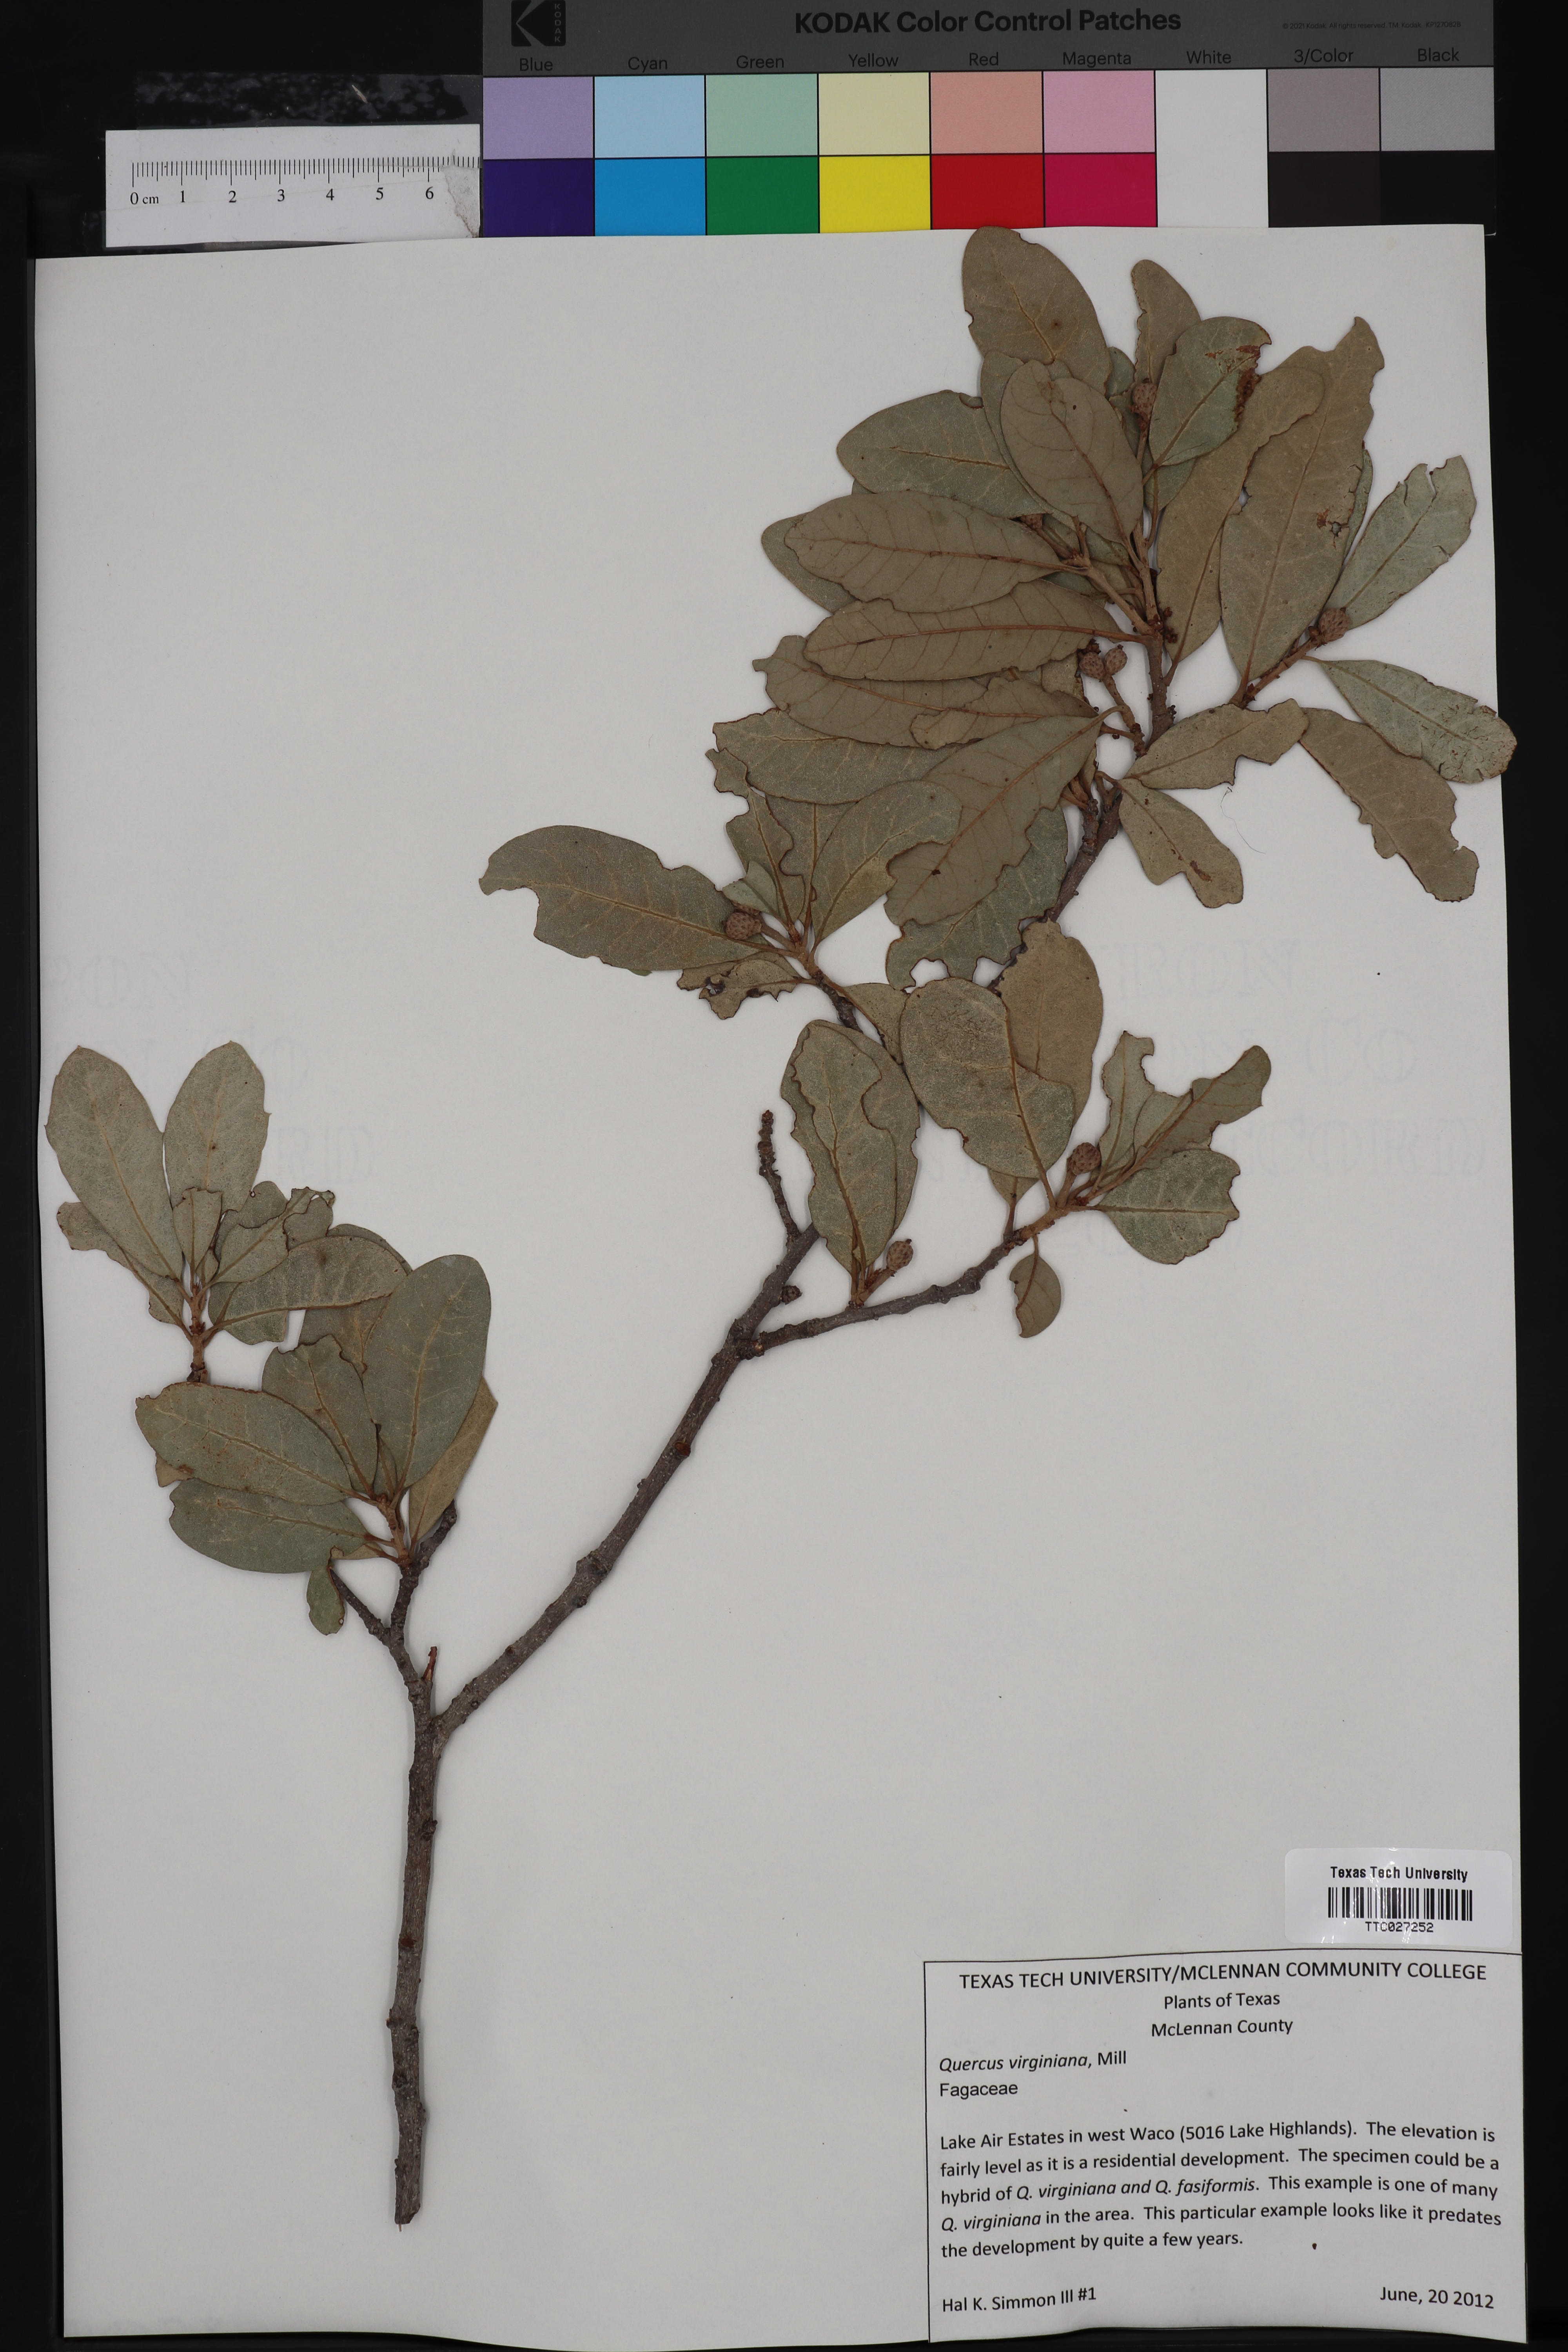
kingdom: Plantae
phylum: Tracheophyta
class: Magnoliopsida
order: Fagales
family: Fagaceae
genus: Quercus
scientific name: Quercus virginiana
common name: Southern live oak
